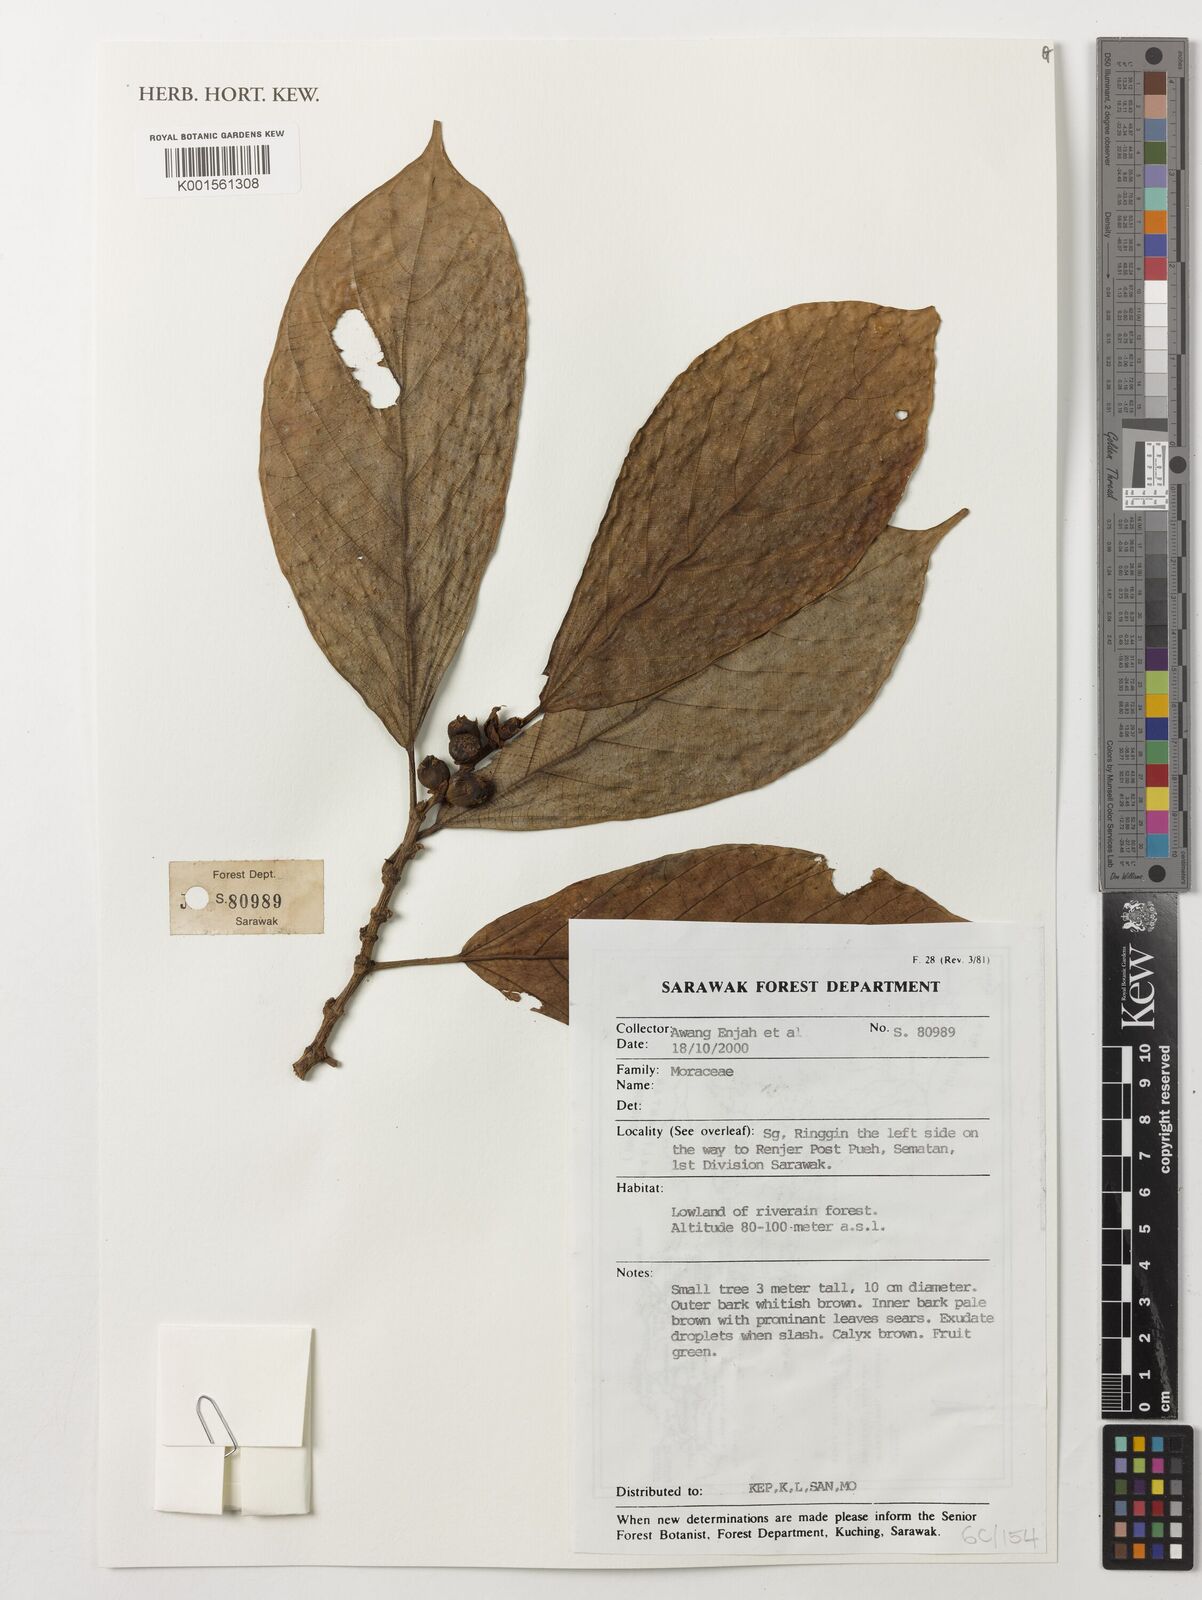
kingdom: Plantae
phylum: Tracheophyta
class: Magnoliopsida
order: Rosales
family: Moraceae
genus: Ficus
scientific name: Ficus
